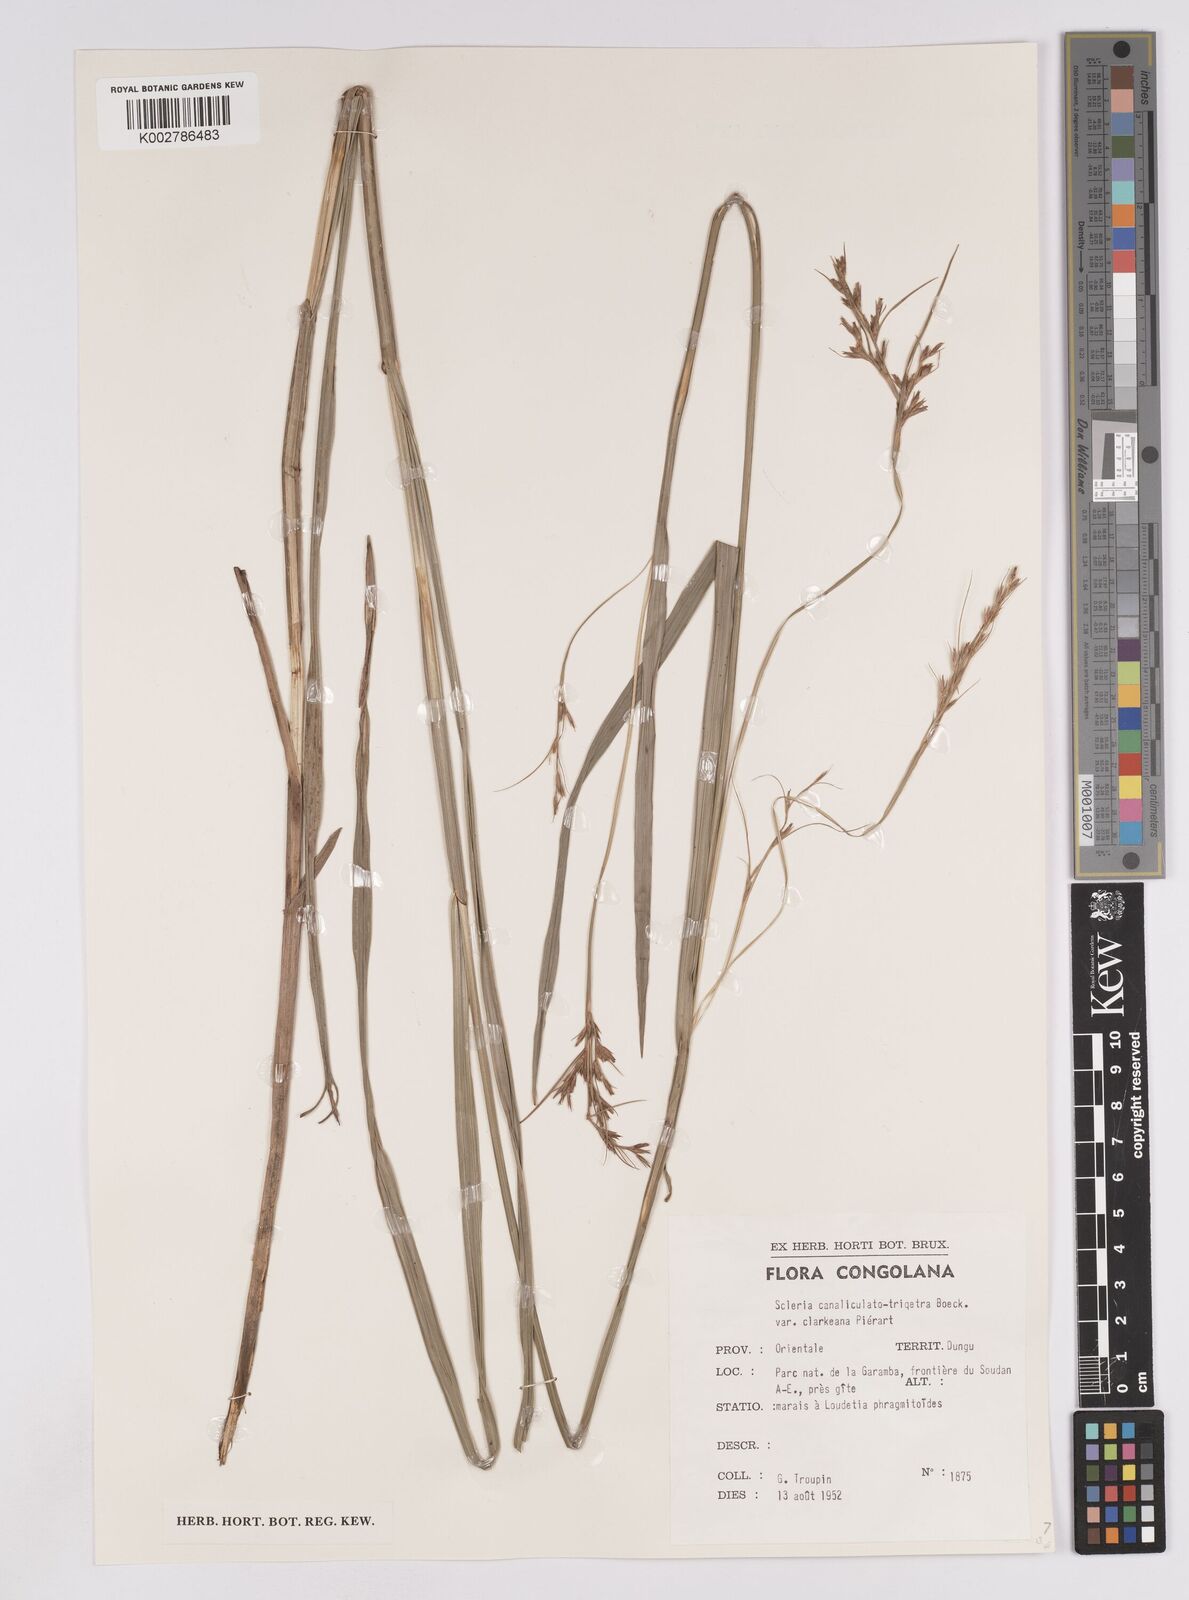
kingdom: Plantae
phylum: Tracheophyta
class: Liliopsida
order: Poales
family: Cyperaceae
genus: Scleria
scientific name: Scleria lagoensis
